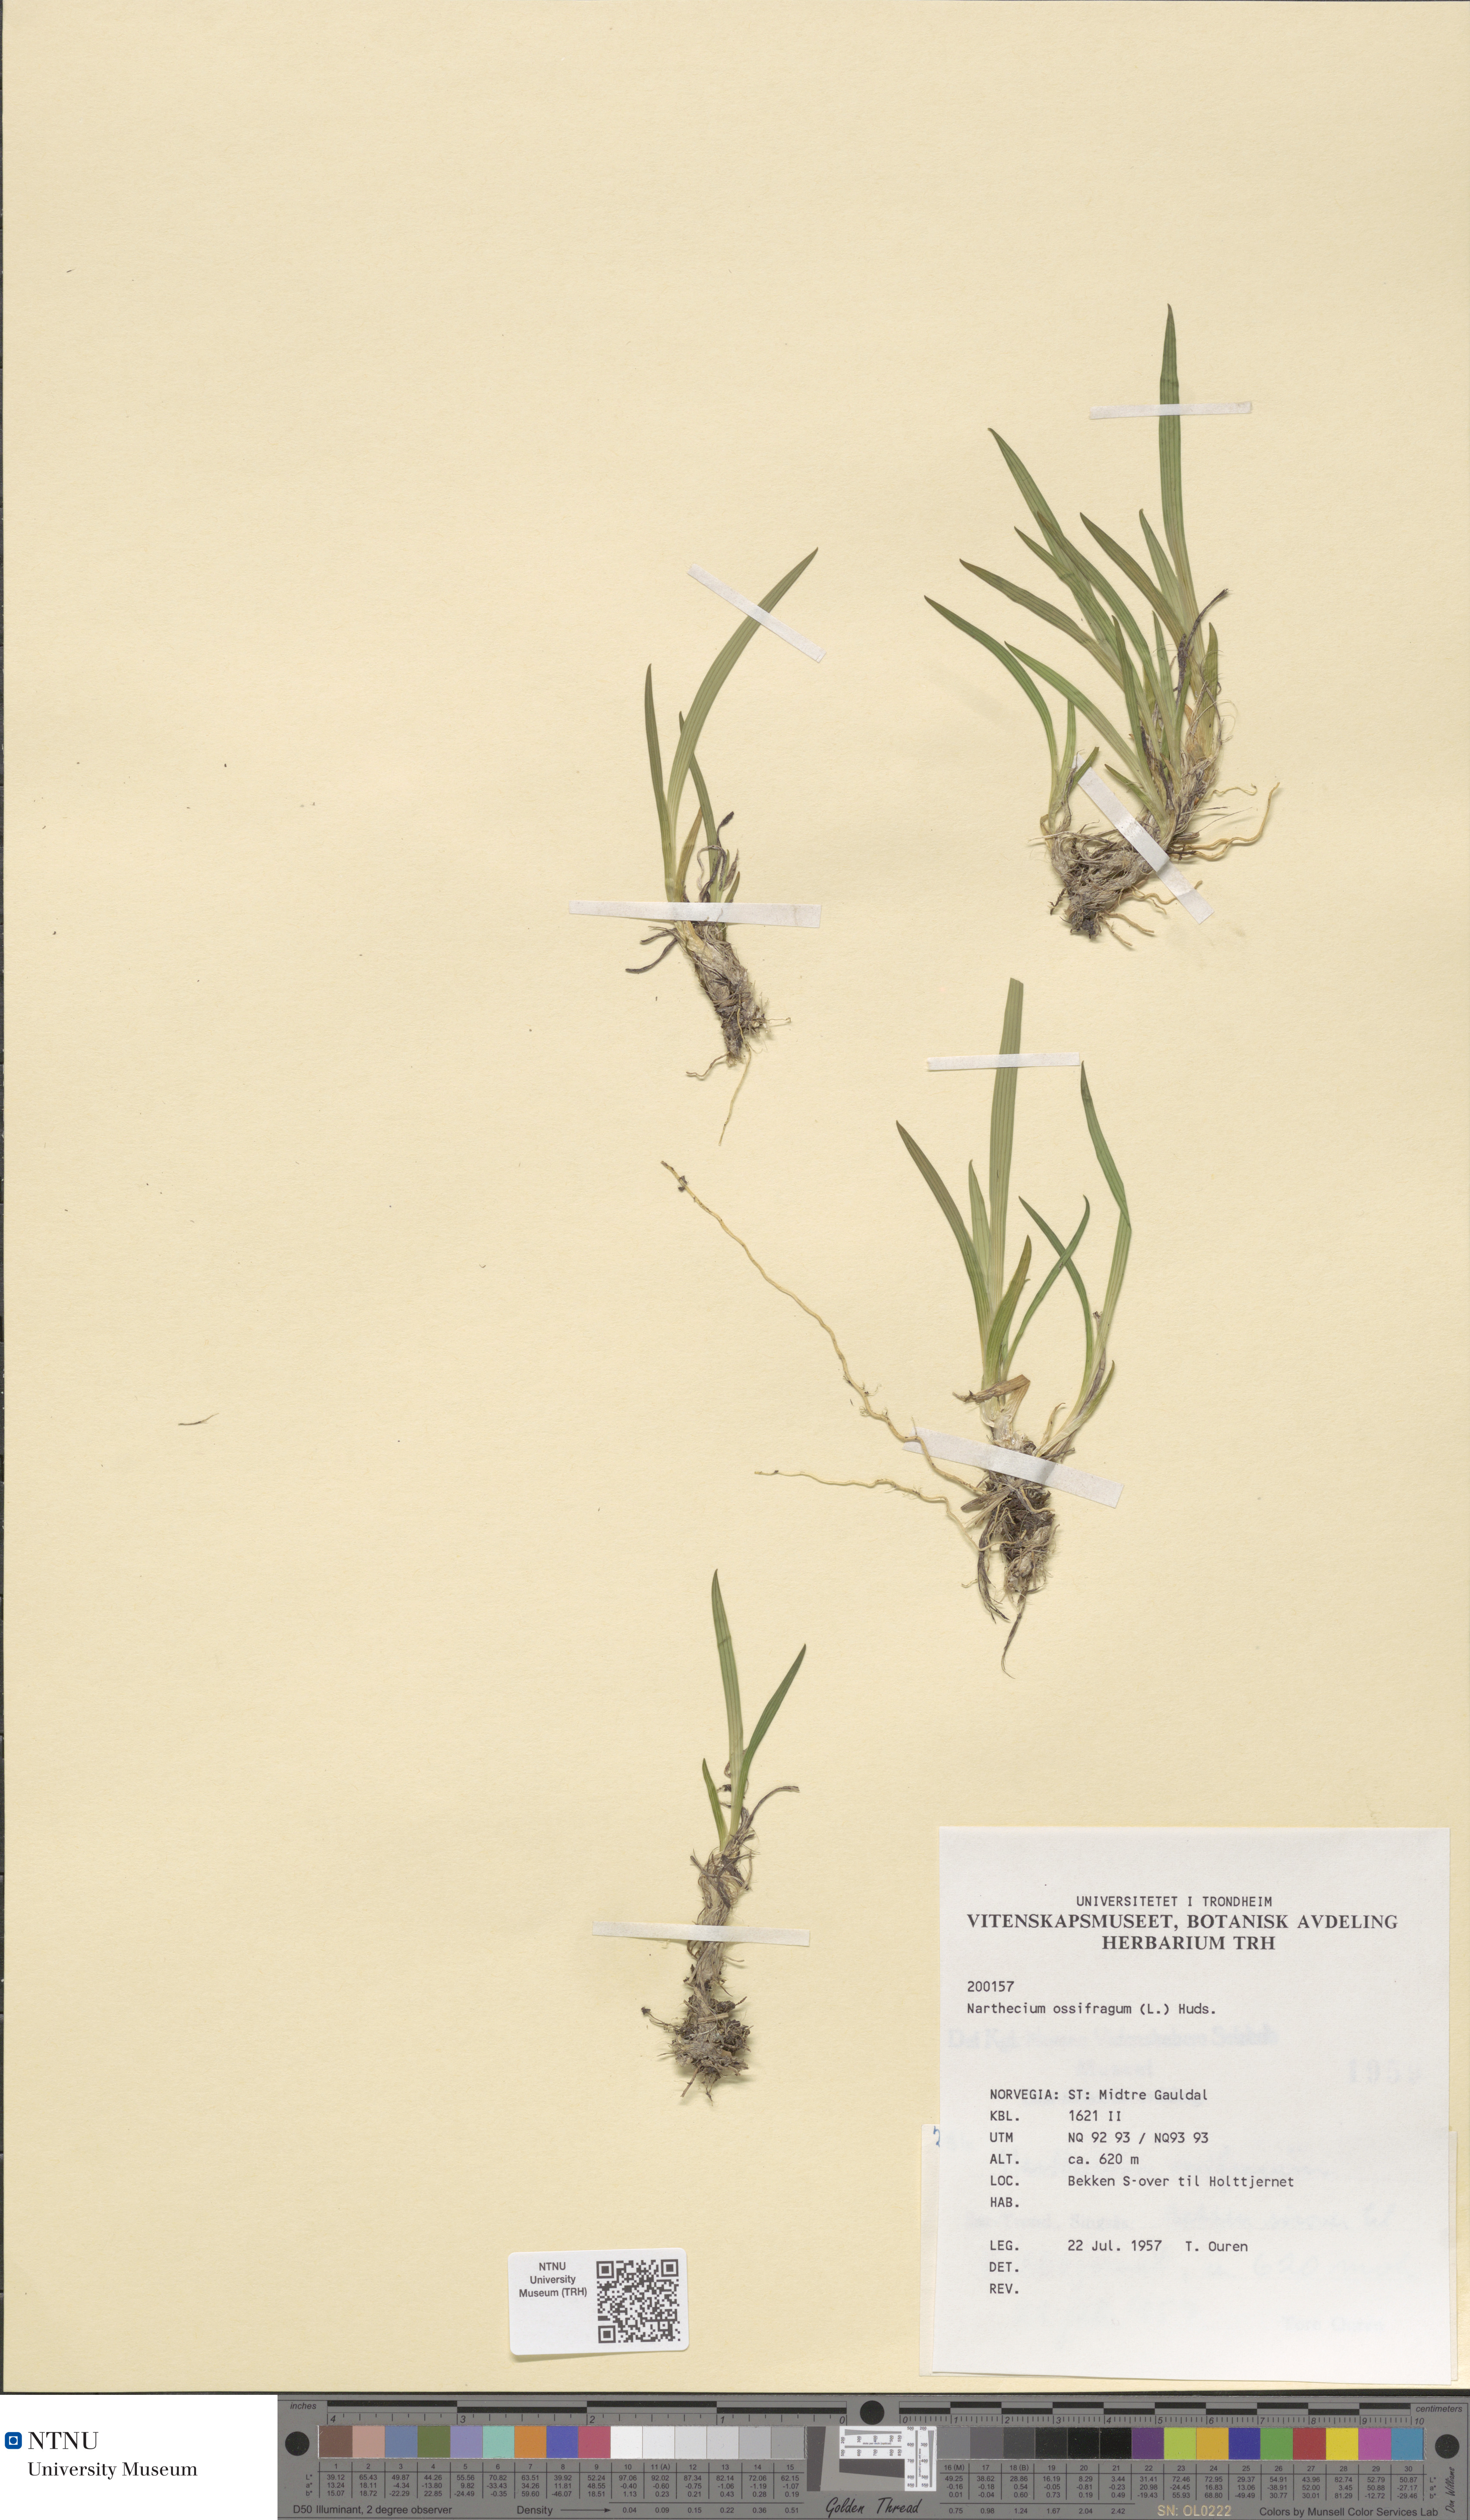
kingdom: Plantae
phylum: Tracheophyta
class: Liliopsida
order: Dioscoreales
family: Nartheciaceae
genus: Narthecium
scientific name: Narthecium ossifragum
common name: Bog asphodel
